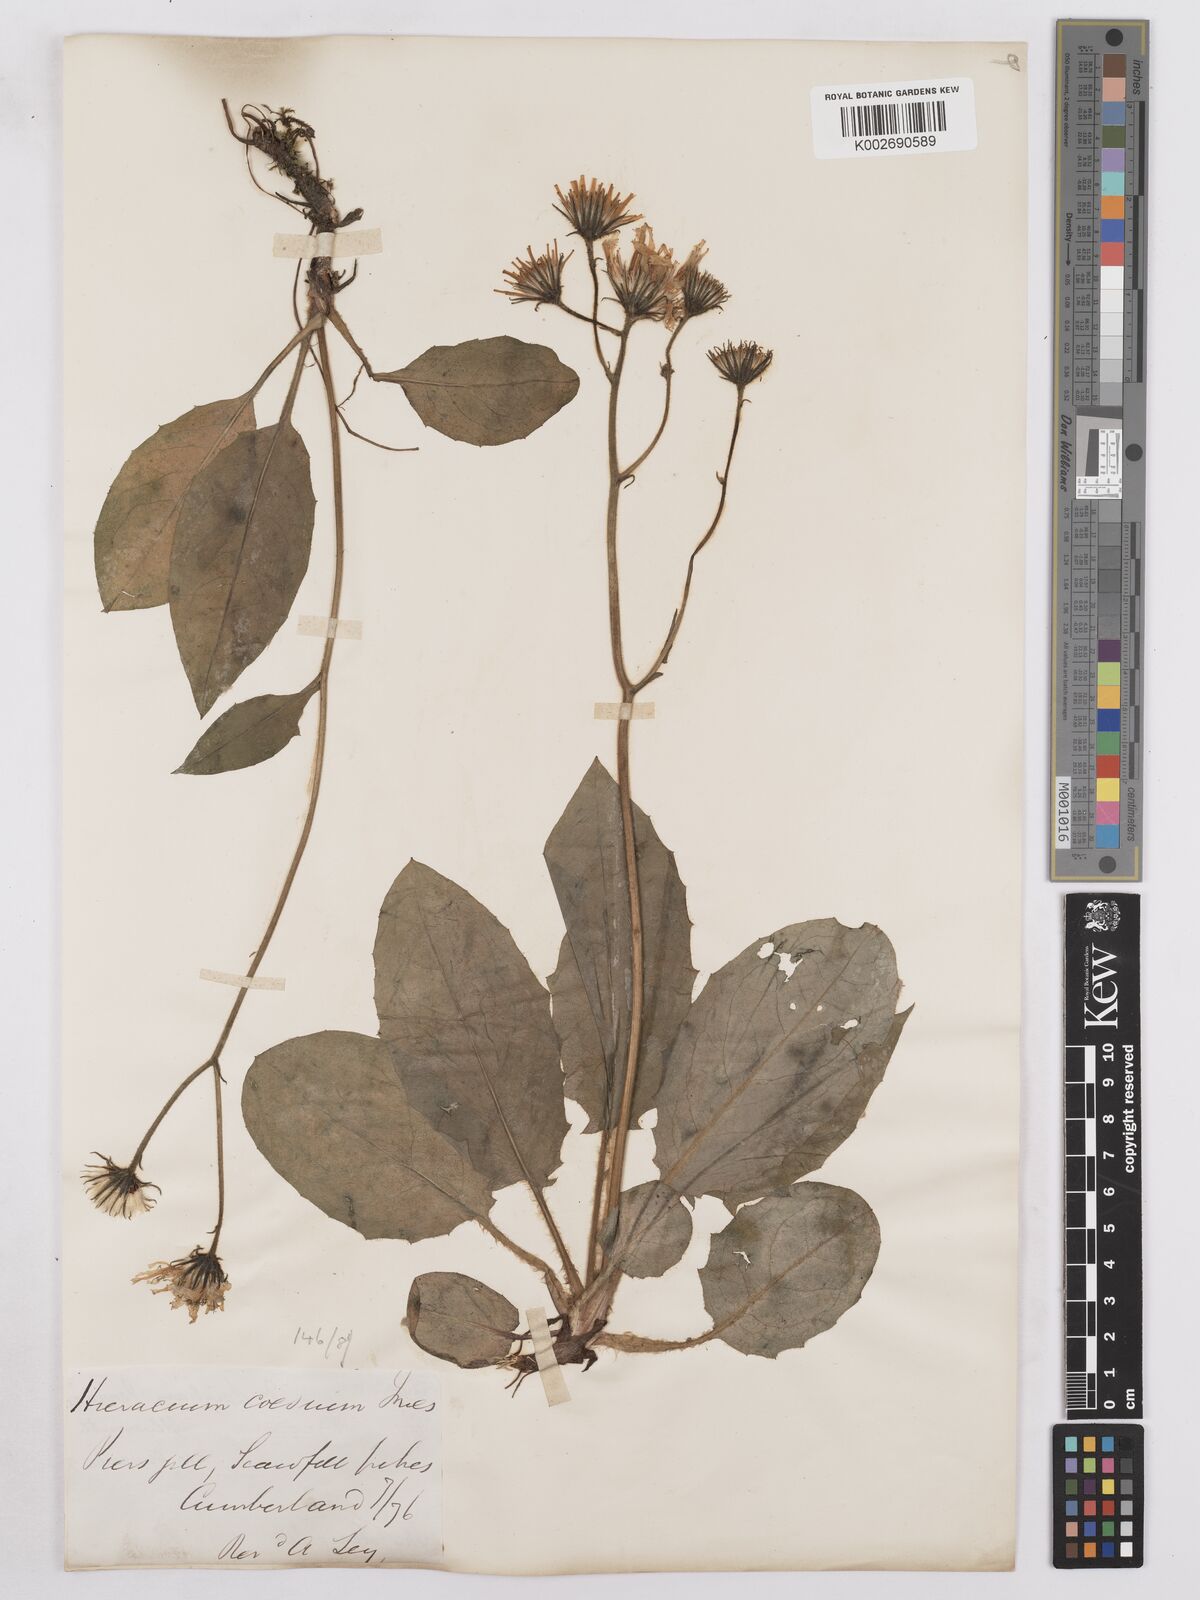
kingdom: Plantae
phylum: Tracheophyta
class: Magnoliopsida
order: Asterales
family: Asteraceae
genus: Hieracium
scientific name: Hieracium subbritannicum
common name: Limestone hawkweed
